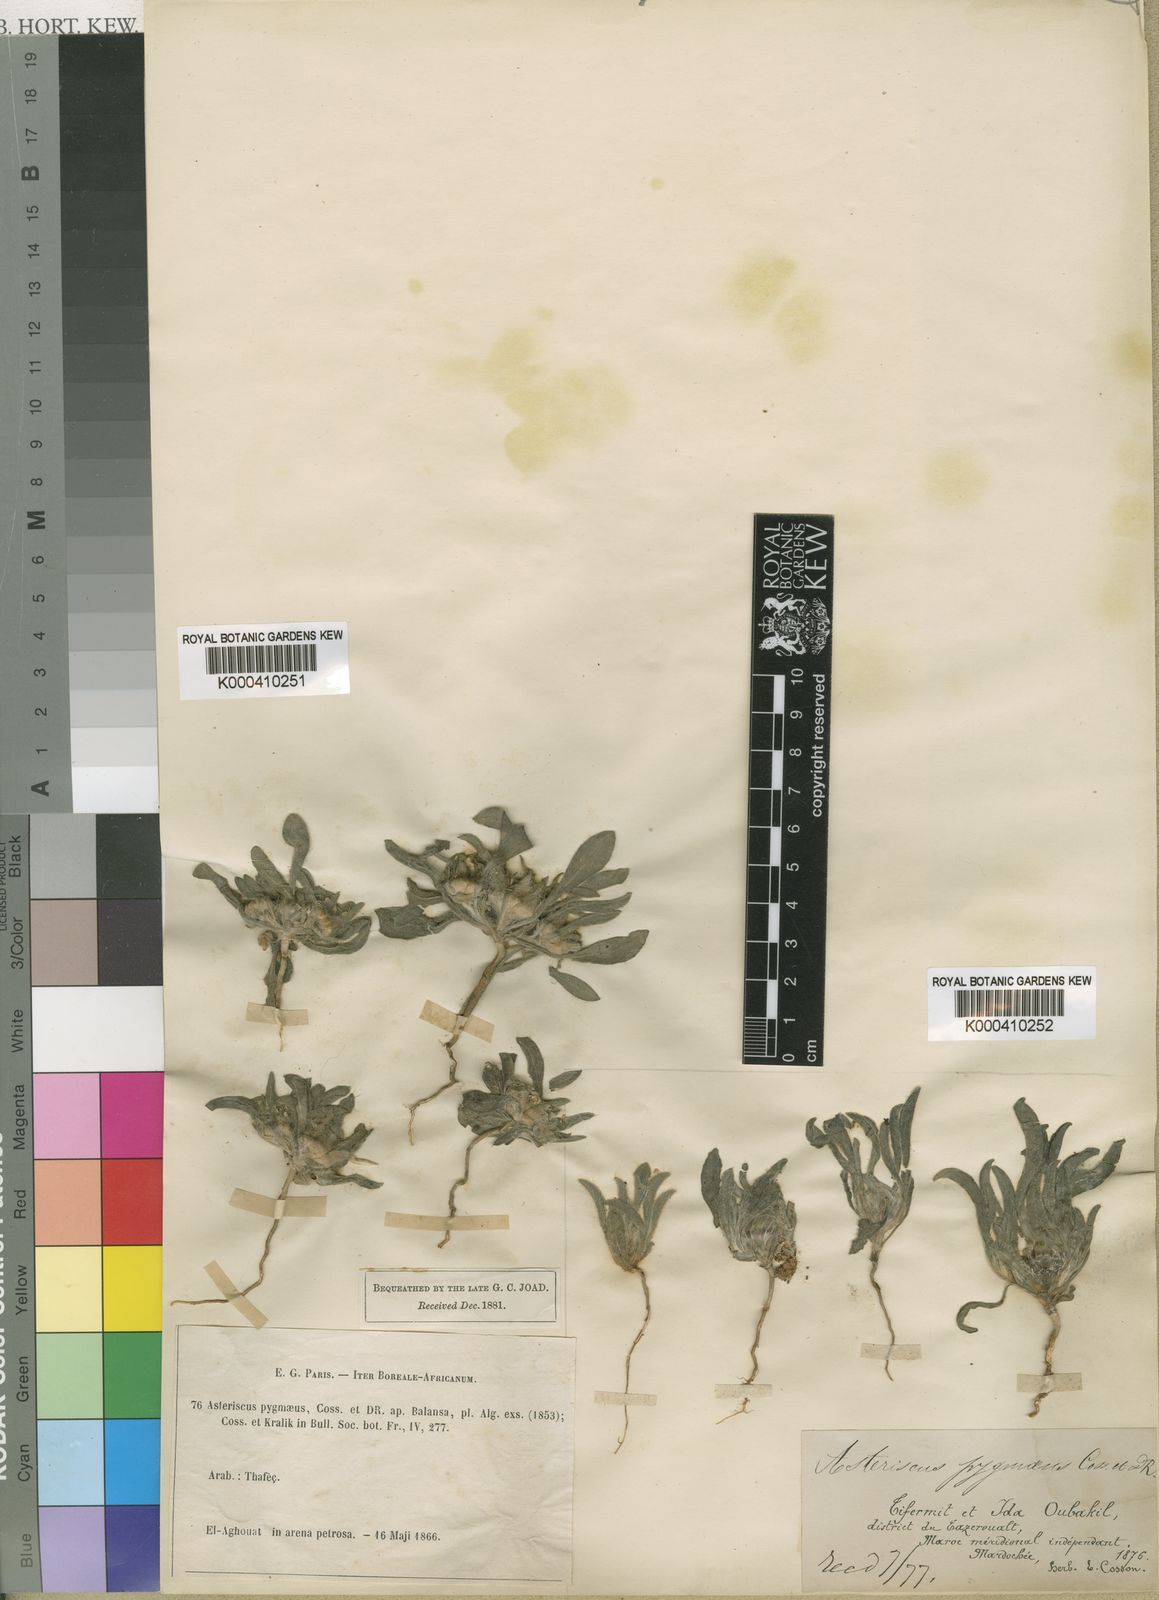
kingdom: Plantae
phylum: Tracheophyta
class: Magnoliopsida
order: Asterales
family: Asteraceae
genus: Pallenis
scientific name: Pallenis hierochuntica
